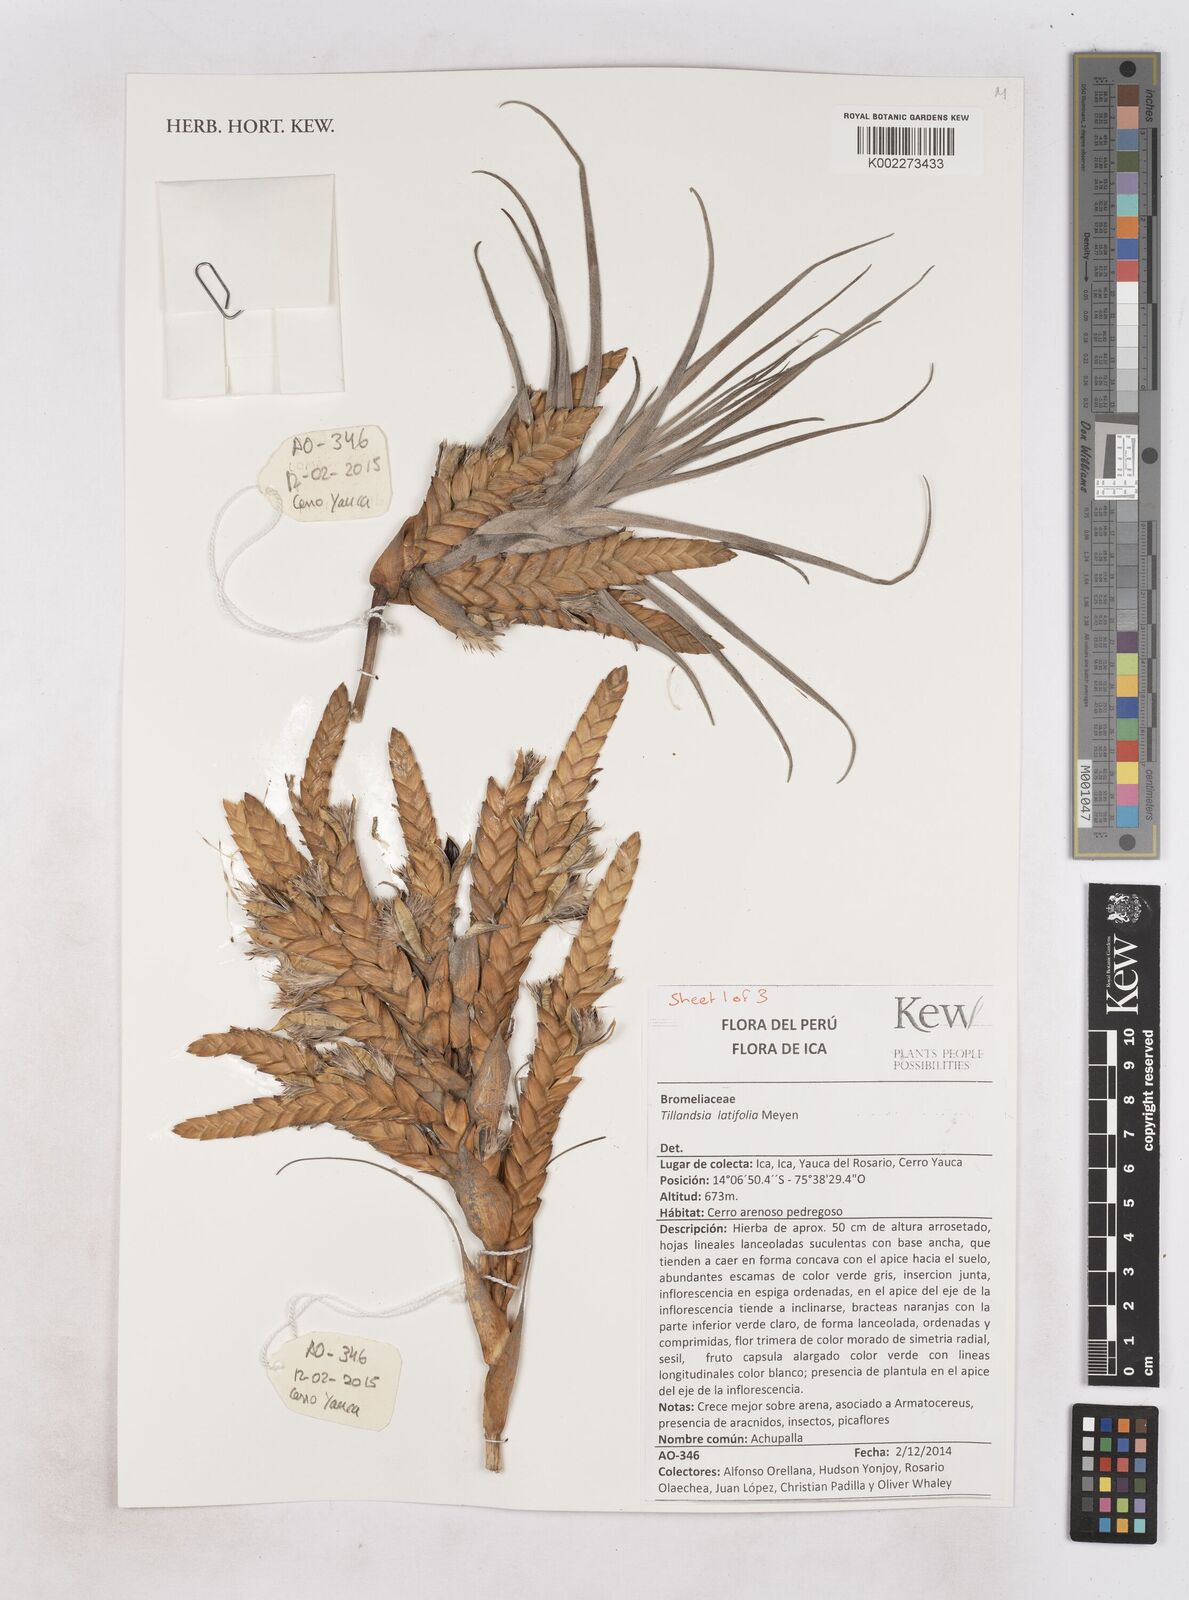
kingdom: Plantae
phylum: Tracheophyta
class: Liliopsida
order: Poales
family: Bromeliaceae
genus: Tillandsia
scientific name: Tillandsia latifolia
